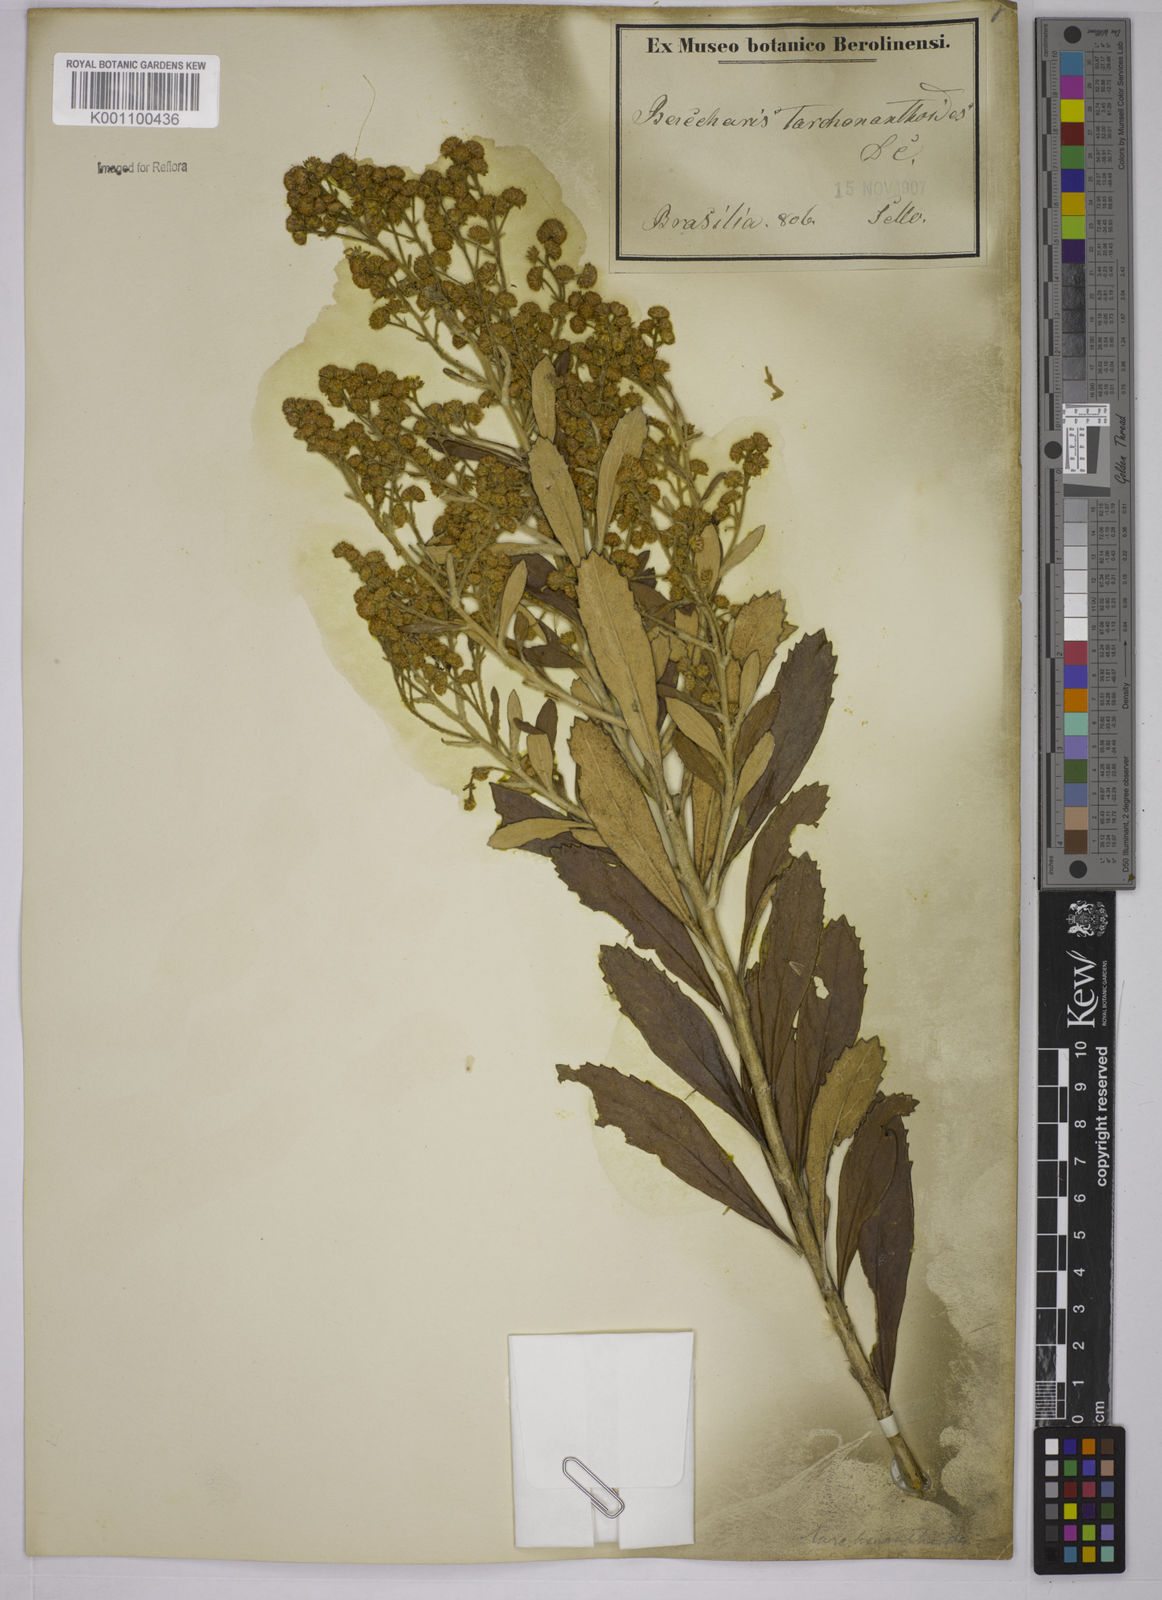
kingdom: Plantae
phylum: Tracheophyta
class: Magnoliopsida
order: Asterales
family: Asteraceae
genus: Baccharis
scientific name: Baccharis
